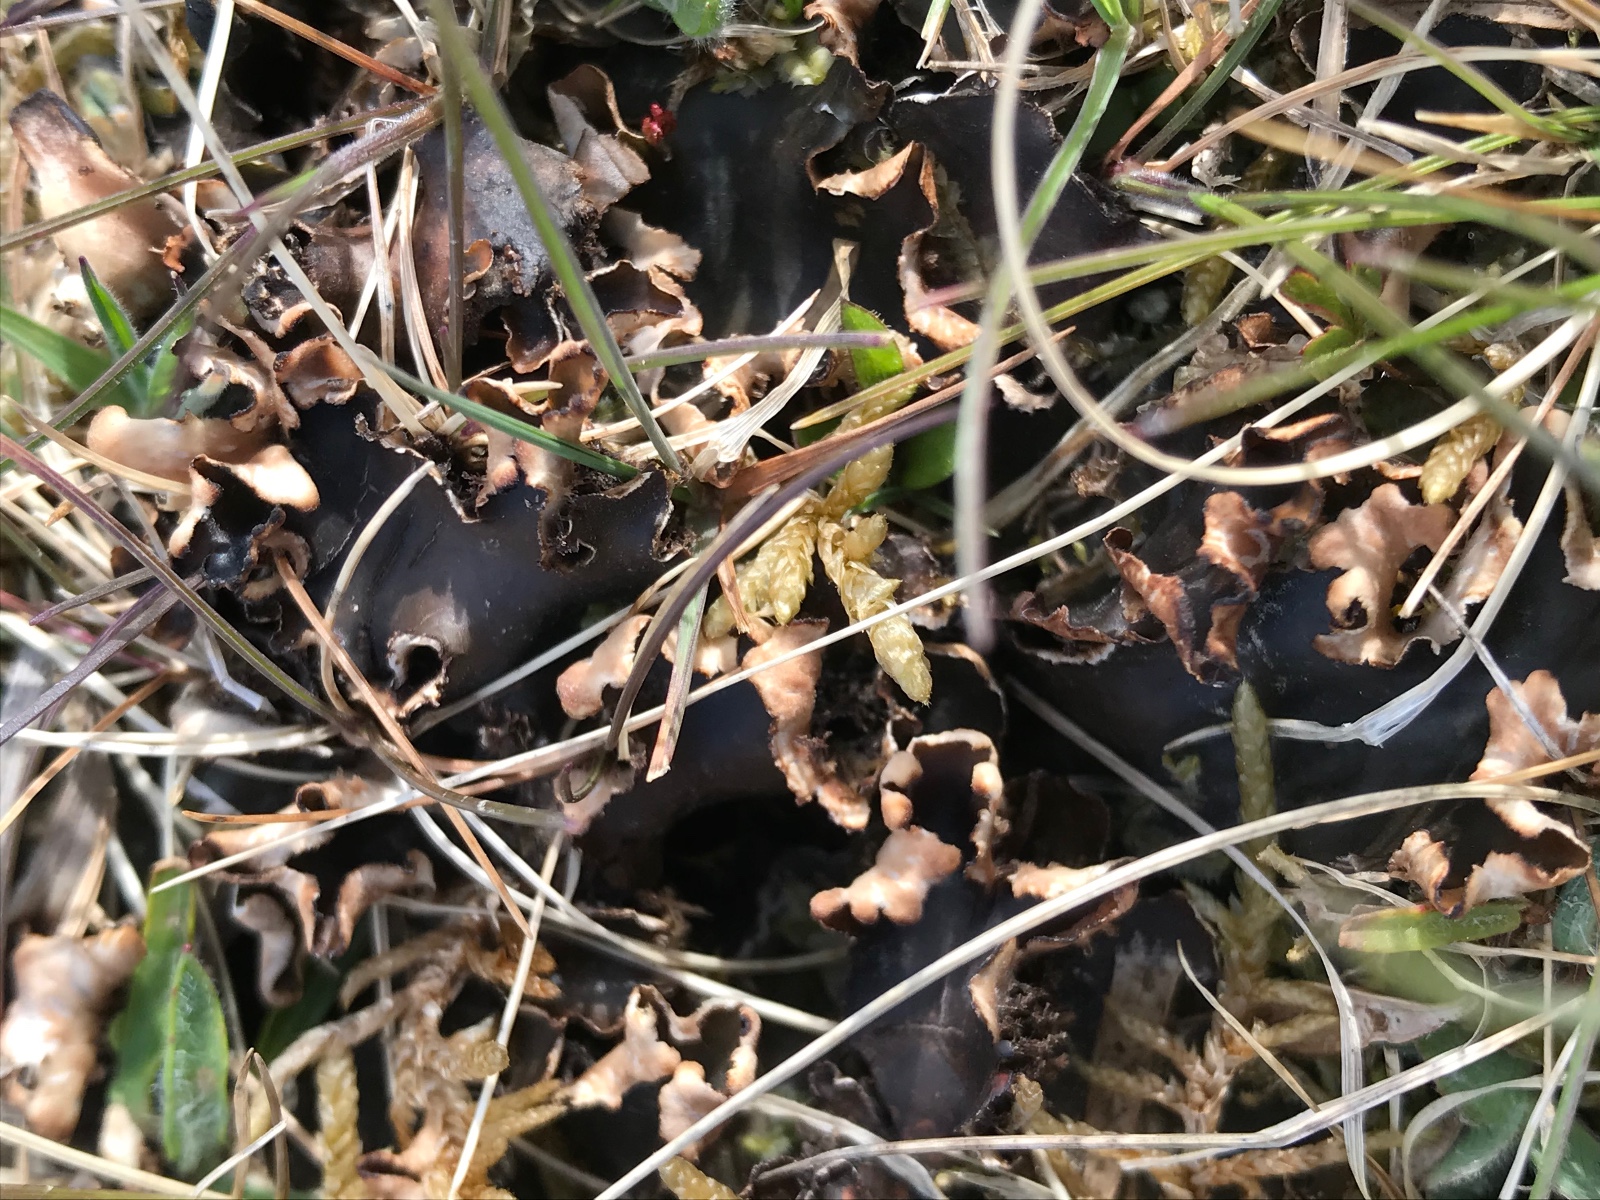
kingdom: Fungi
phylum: Ascomycota
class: Lecanoromycetes
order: Peltigerales
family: Peltigeraceae
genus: Peltigera
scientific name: Peltigera
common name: skjoldlav
